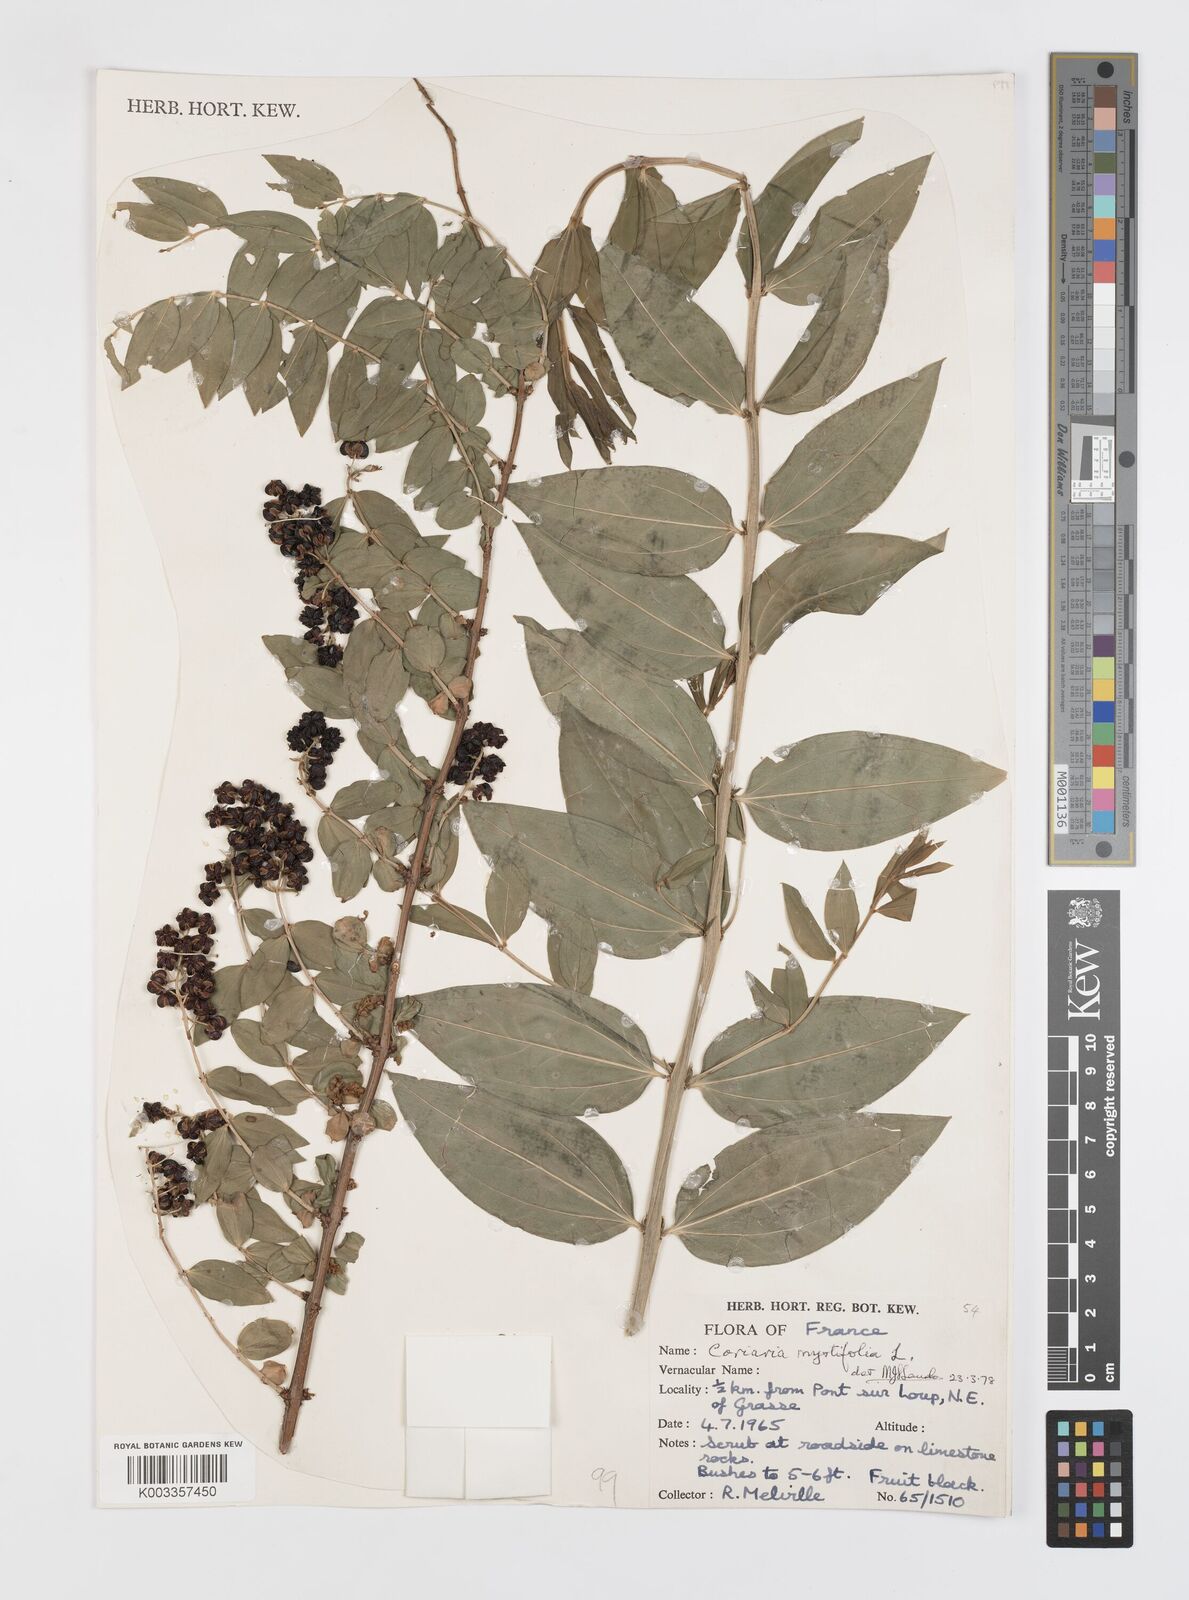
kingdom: Plantae
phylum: Tracheophyta
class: Magnoliopsida
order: Cucurbitales
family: Coriariaceae
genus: Coriaria
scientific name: Coriaria myrtifolia
